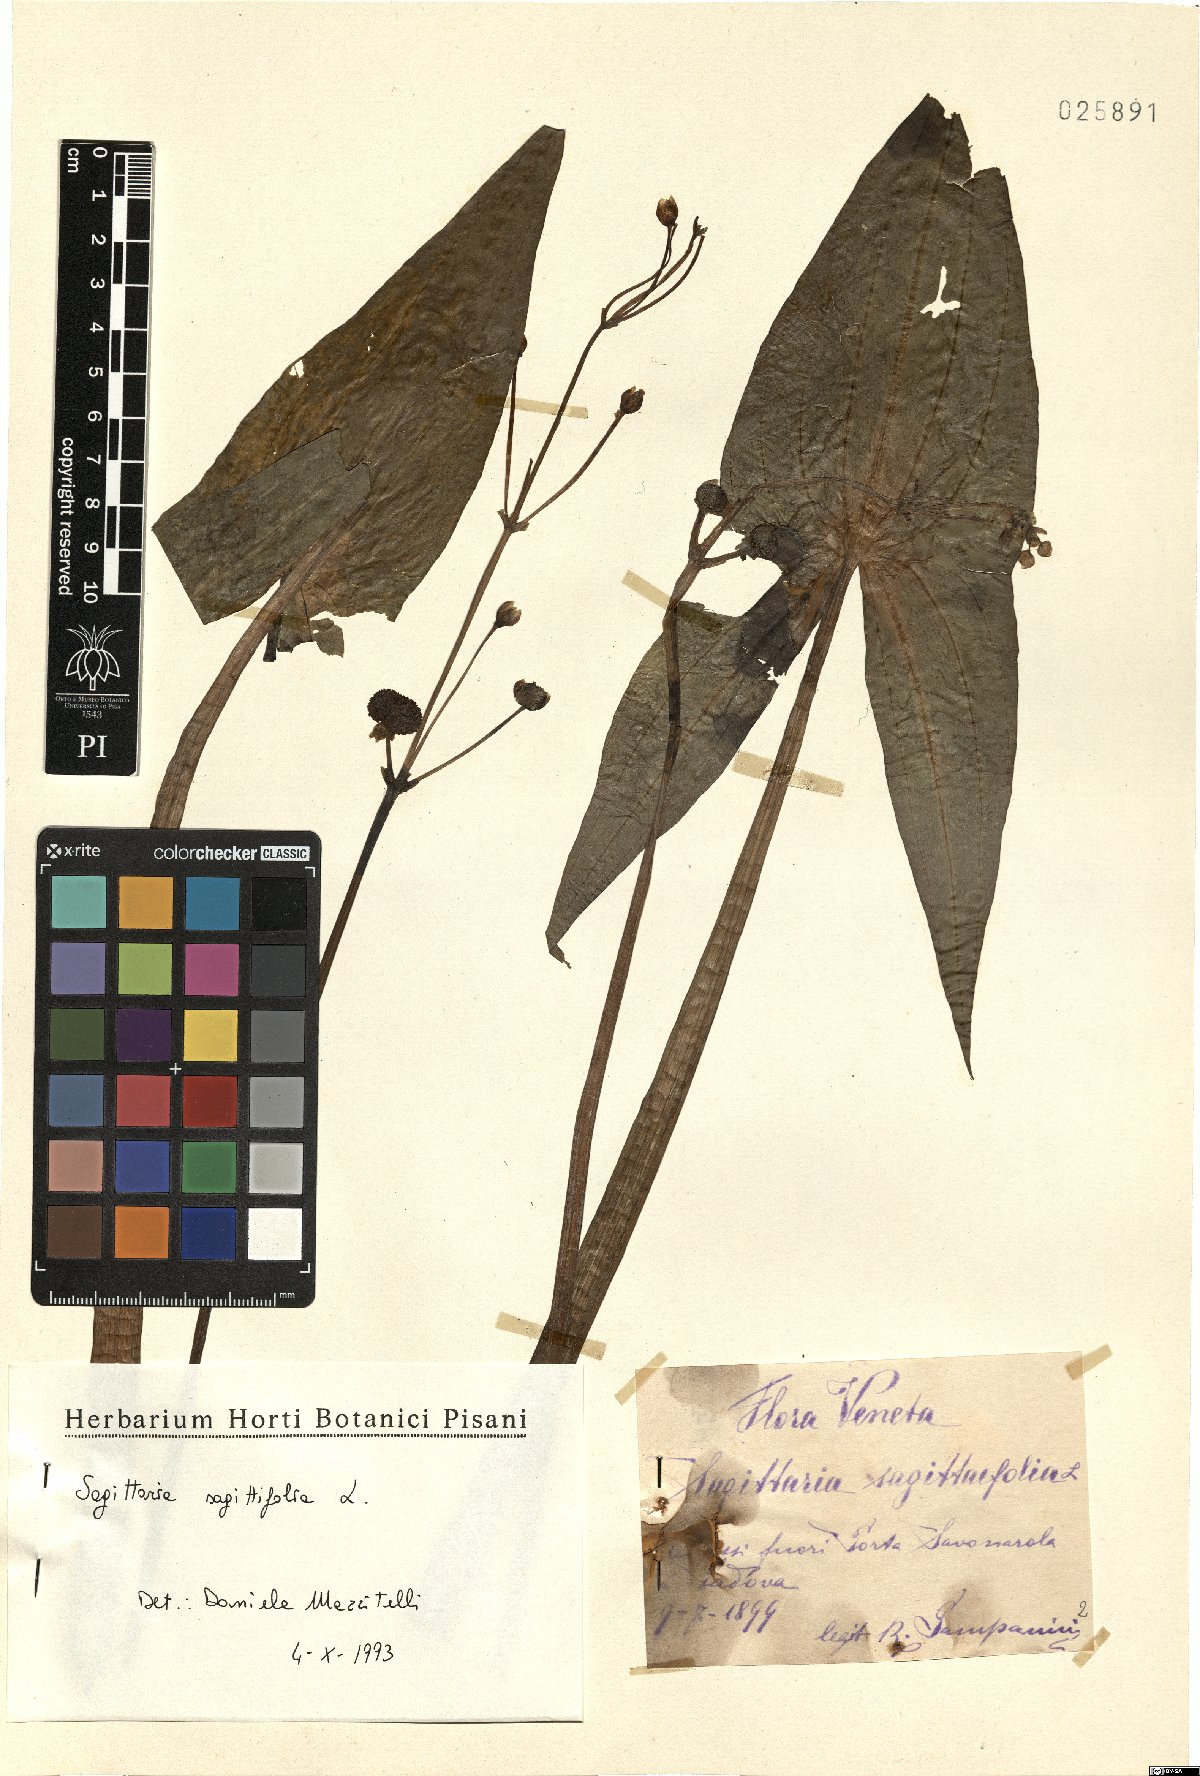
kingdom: Plantae
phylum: Tracheophyta
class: Liliopsida
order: Alismatales
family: Alismataceae
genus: Sagittaria
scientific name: Sagittaria sagittifolia
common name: Arrowhead
